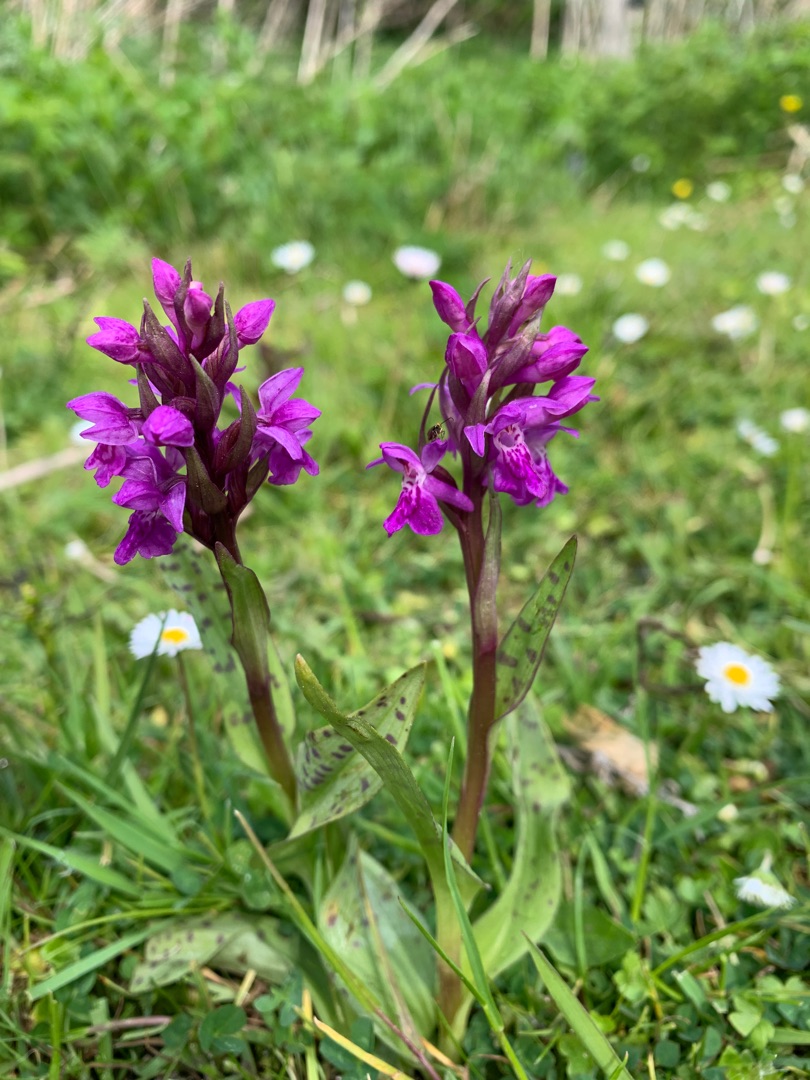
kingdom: Plantae
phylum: Tracheophyta
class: Liliopsida
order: Asparagales
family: Orchidaceae
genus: Dactylorhiza
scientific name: Dactylorhiza majalis
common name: Maj-gøgeurt
